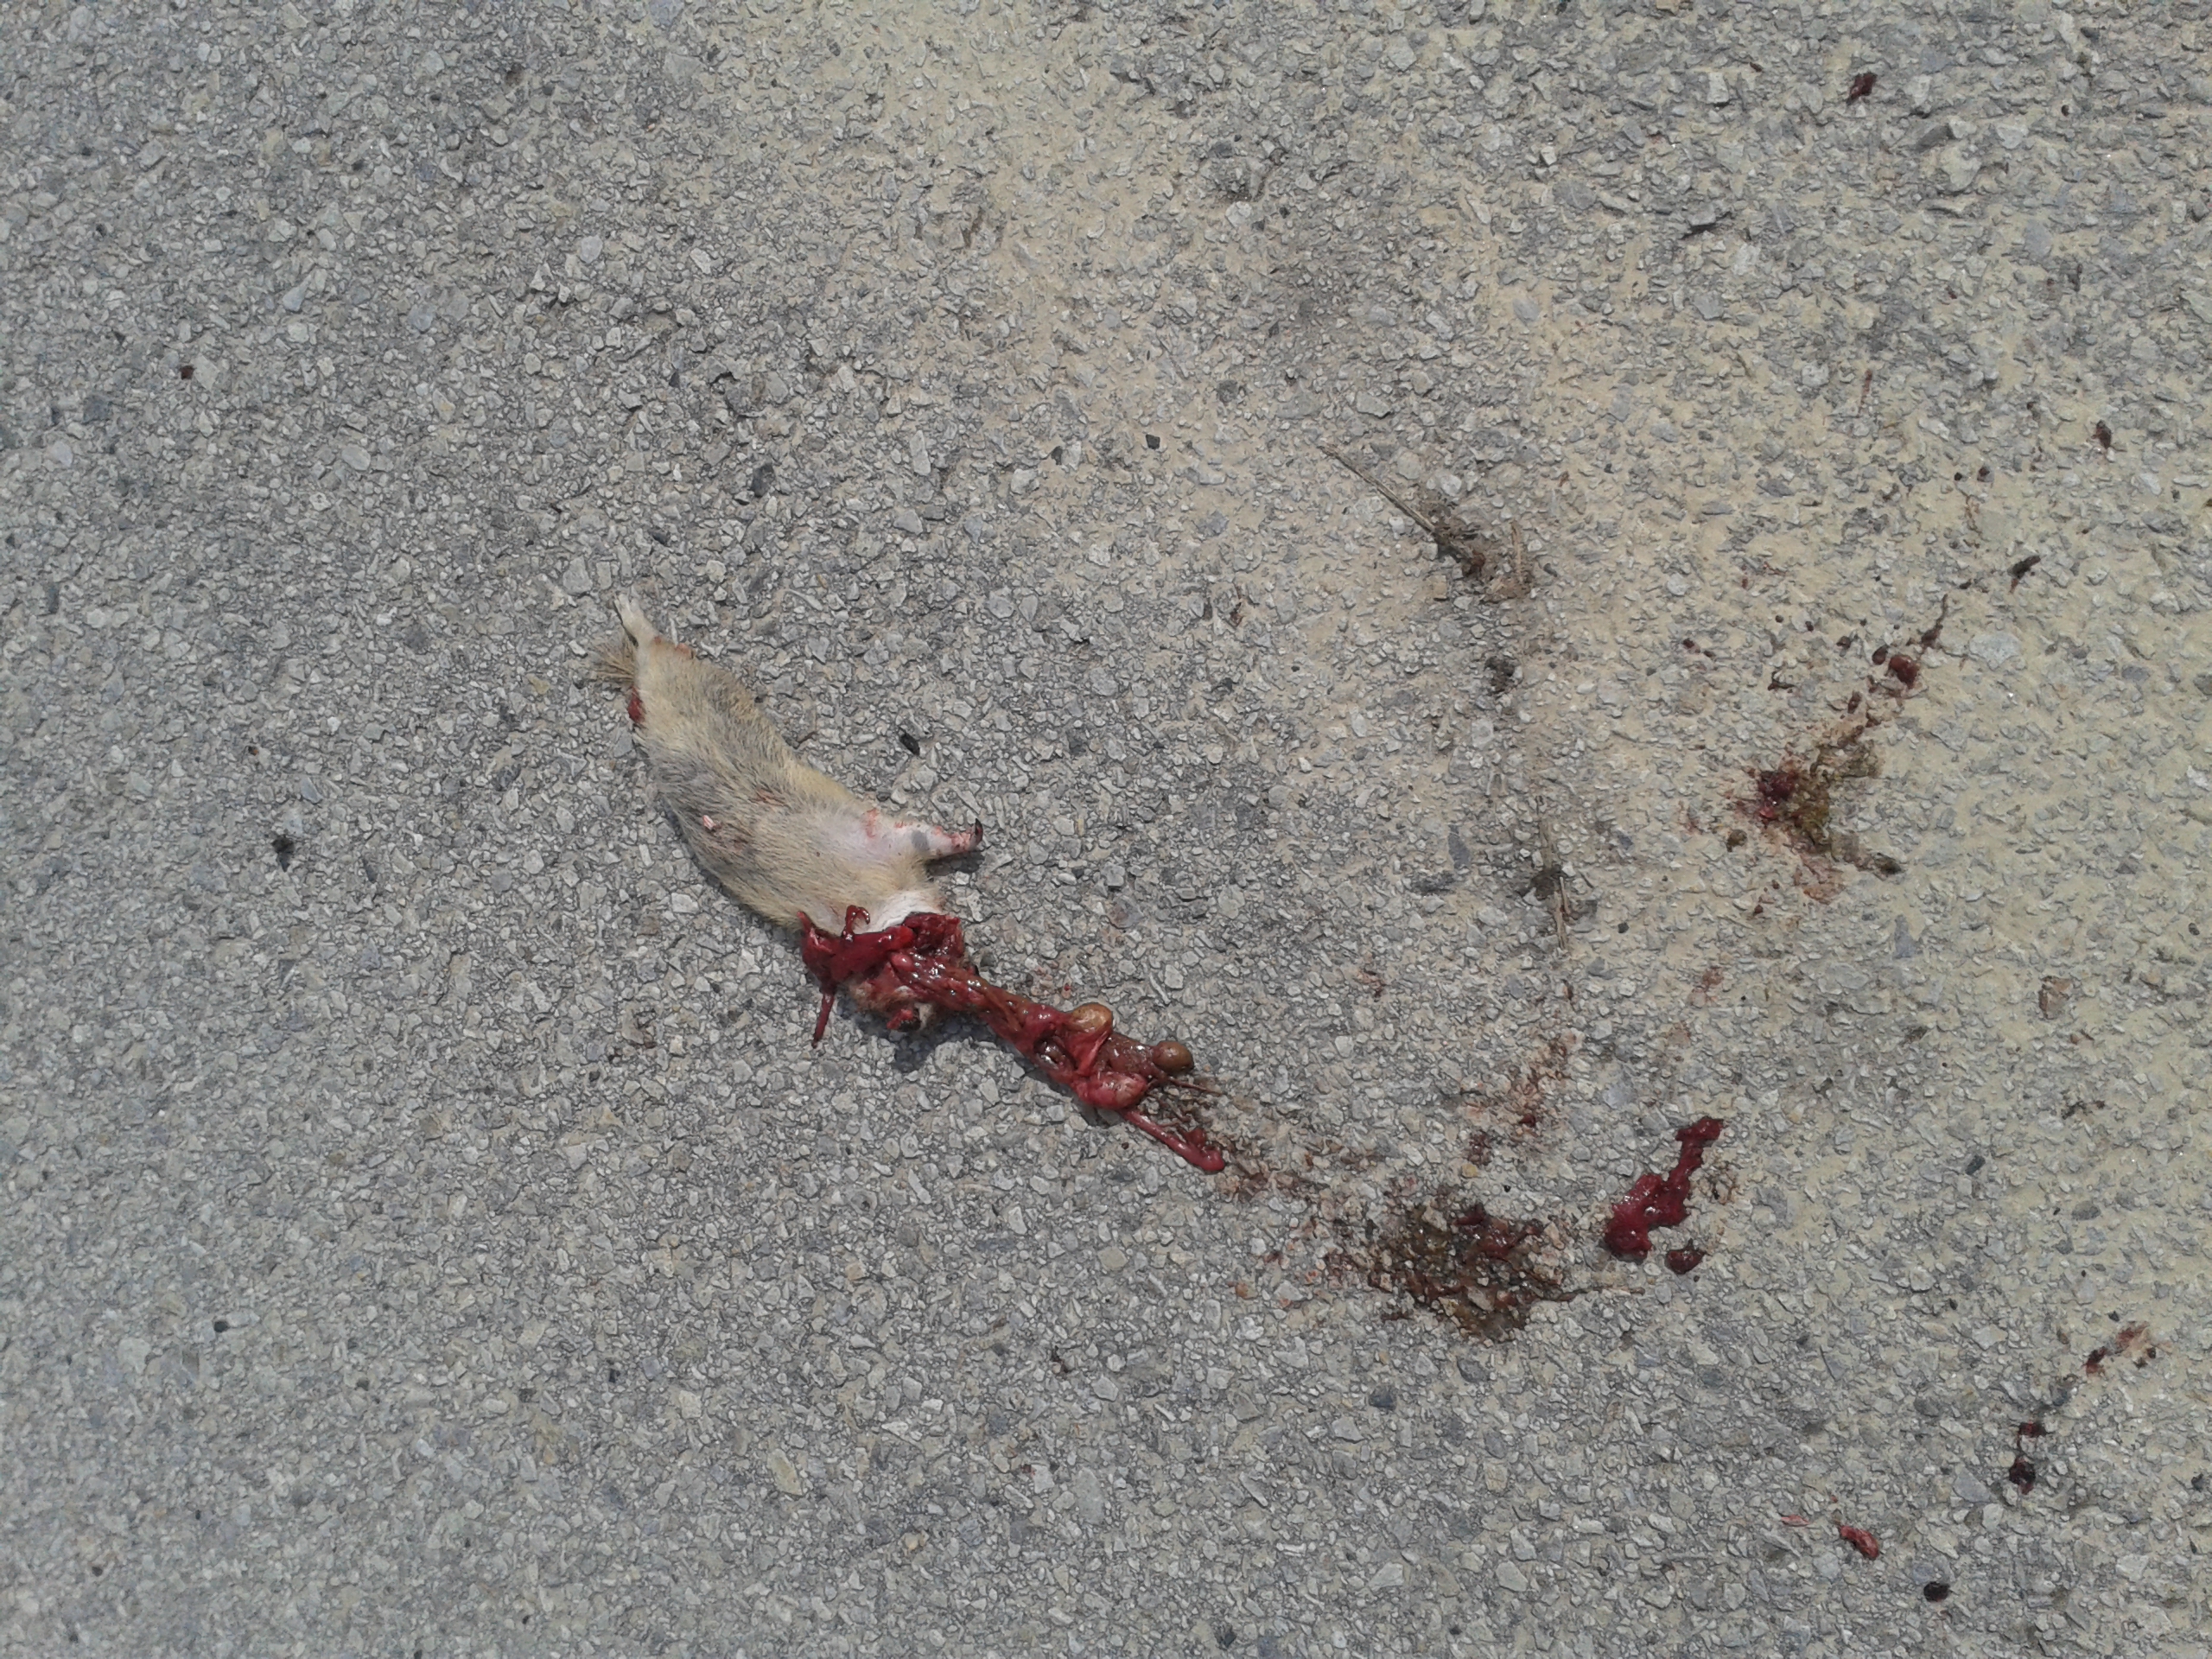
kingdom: Animalia
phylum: Chordata
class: Mammalia
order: Rodentia
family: Sciuridae
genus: Spermophilus
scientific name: Spermophilus citellus
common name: European ground squirrel
